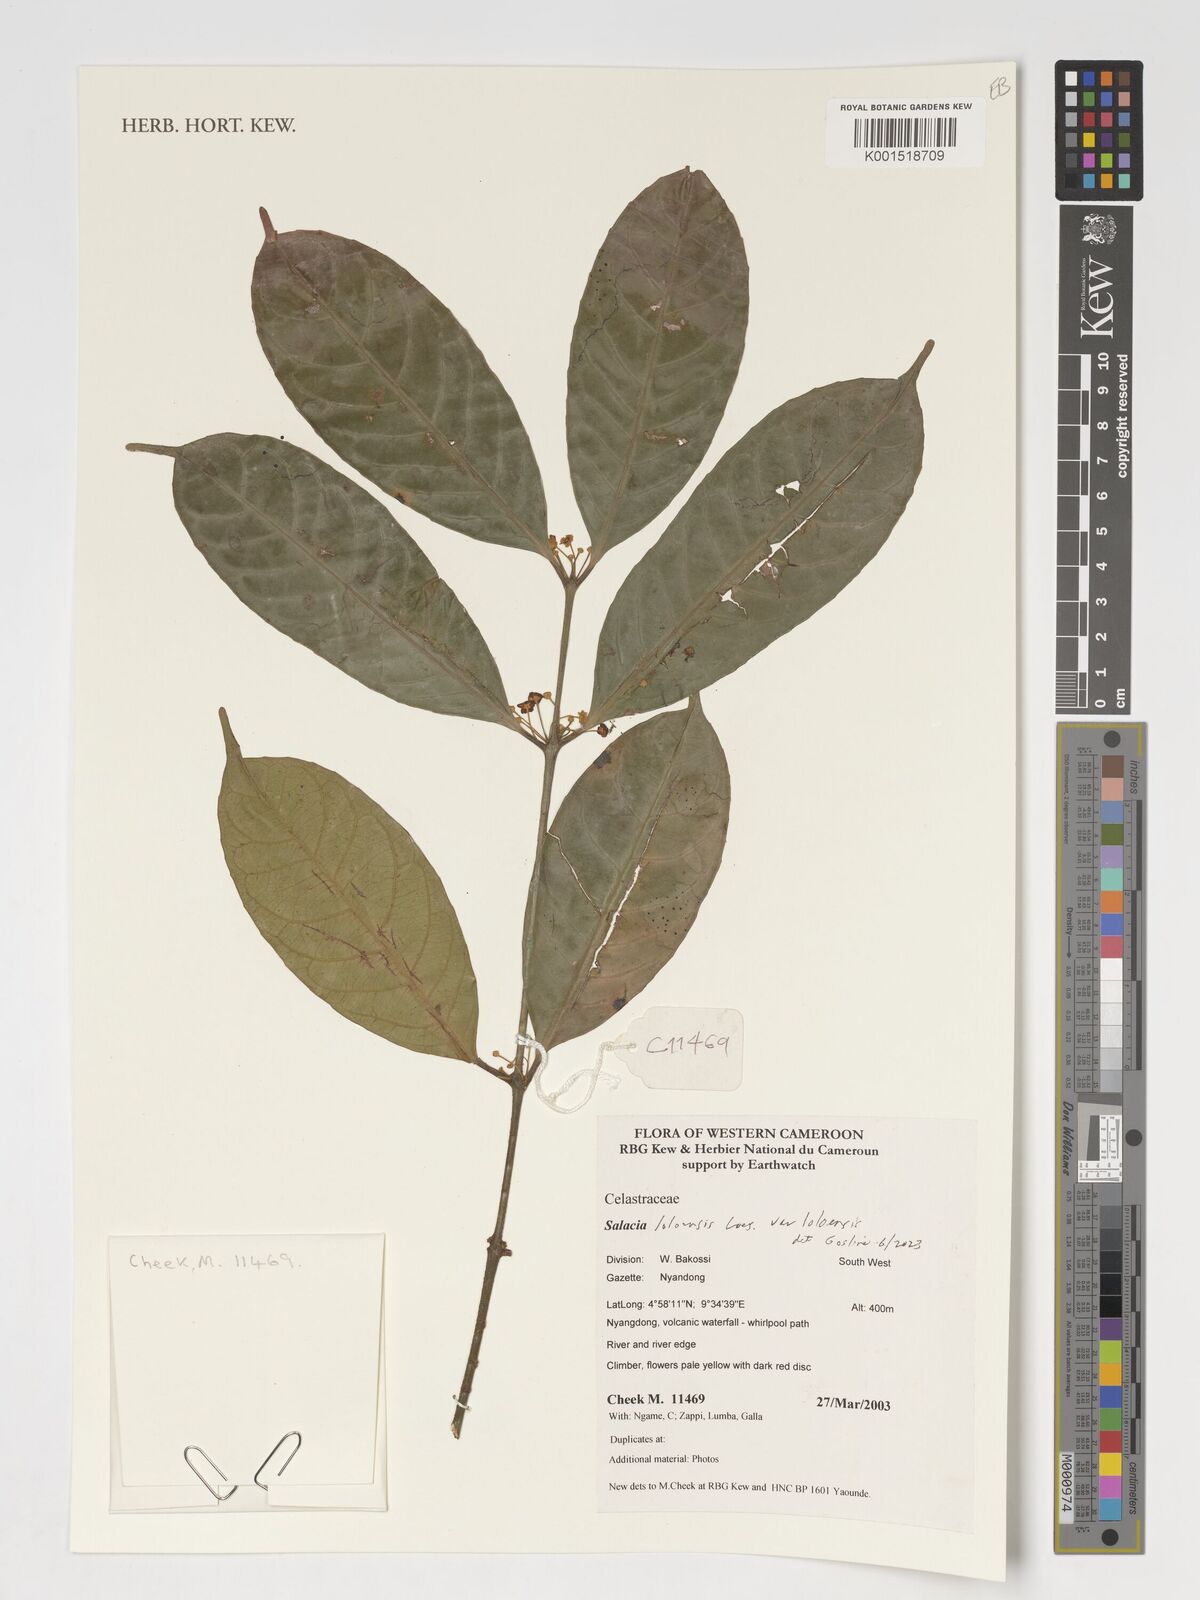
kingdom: Plantae
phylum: Tracheophyta
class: Magnoliopsida
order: Celastrales
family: Celastraceae
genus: Salacia
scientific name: Salacia loloensis
